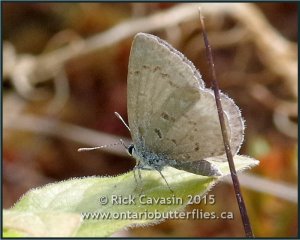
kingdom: Animalia
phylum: Arthropoda
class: Insecta
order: Lepidoptera
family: Lycaenidae
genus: Celastrina
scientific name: Celastrina lucia
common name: Northern Spring Azure
